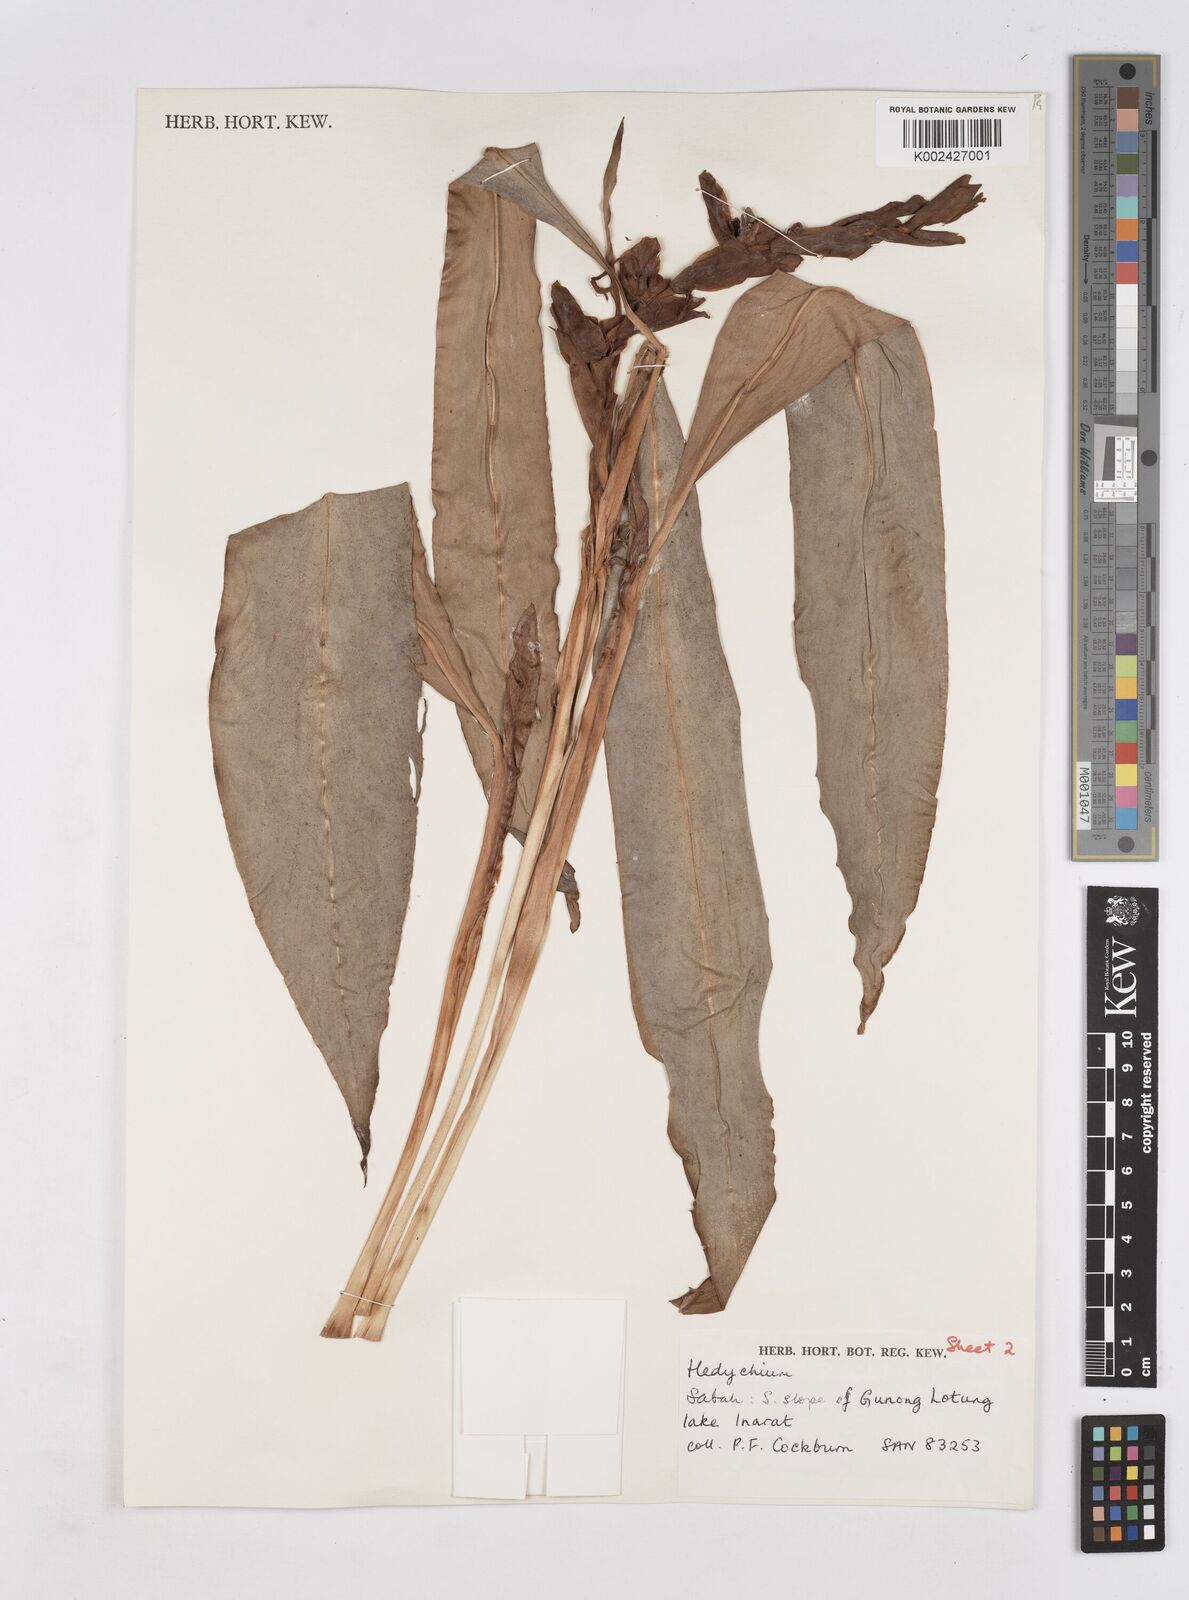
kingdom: Plantae
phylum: Tracheophyta
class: Liliopsida
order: Zingiberales
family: Zingiberaceae
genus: Hedychium
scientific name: Hedychium cylindricum
